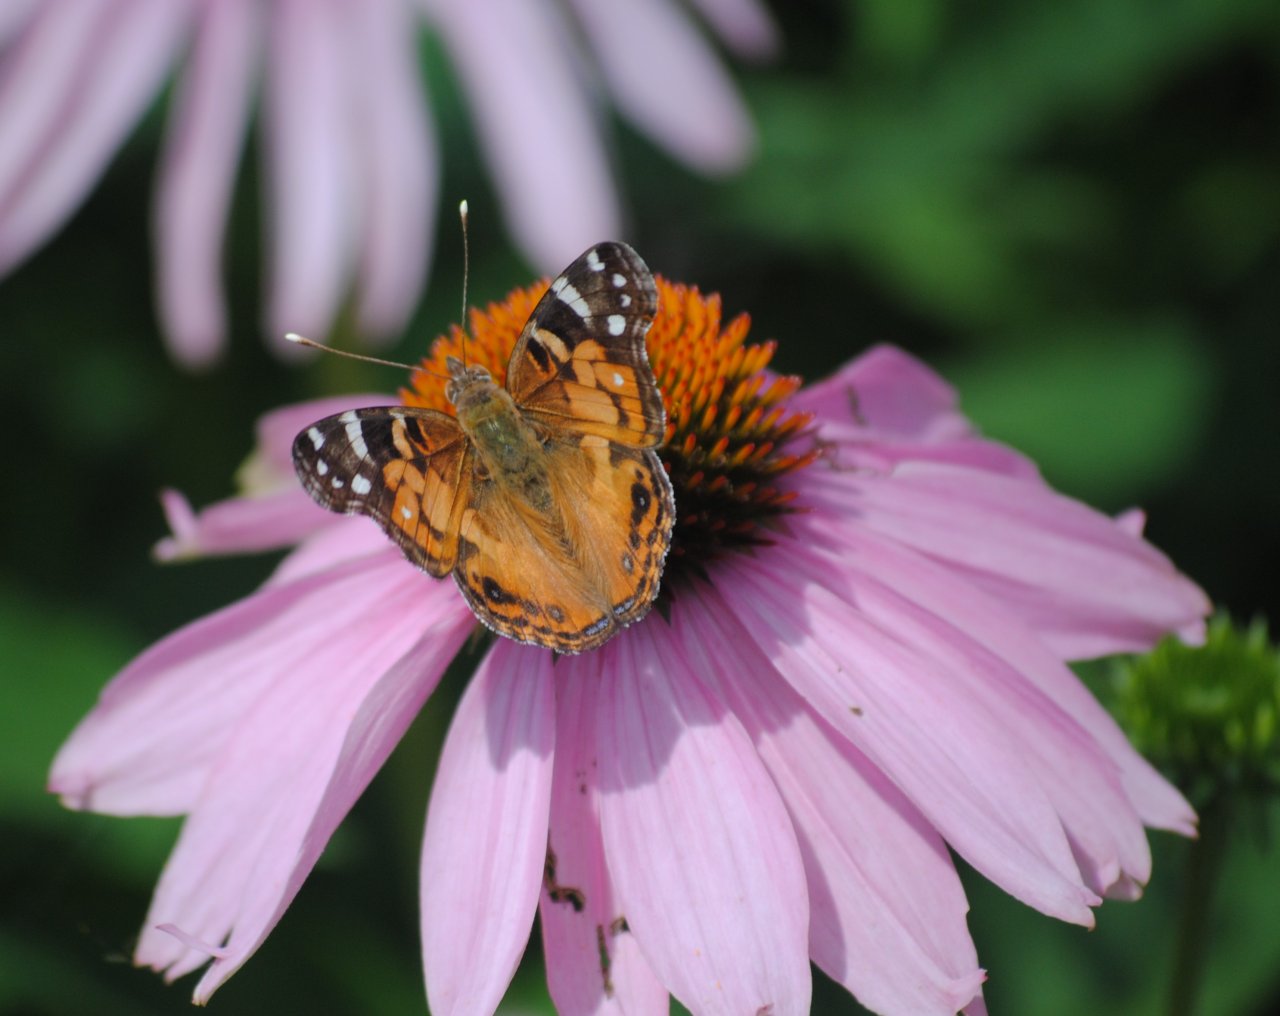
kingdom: Animalia
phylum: Arthropoda
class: Insecta
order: Lepidoptera
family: Nymphalidae
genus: Vanessa
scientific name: Vanessa virginiensis
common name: American Lady
